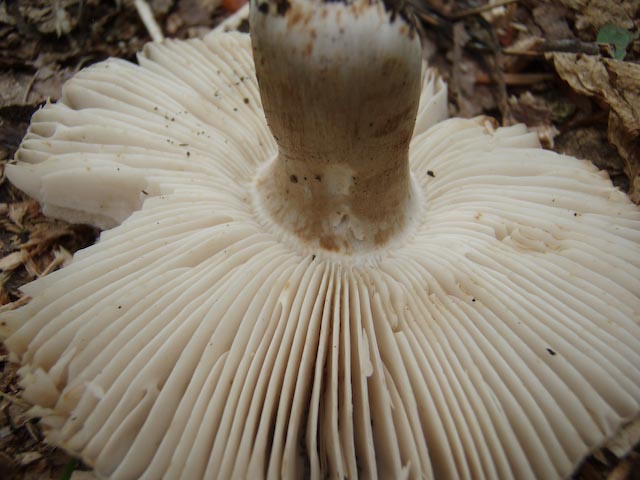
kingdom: Fungi
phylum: Basidiomycota
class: Agaricomycetes
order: Russulales
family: Russulaceae
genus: Russula
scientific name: Russula amoenolens
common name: skarp kam-skørhat
